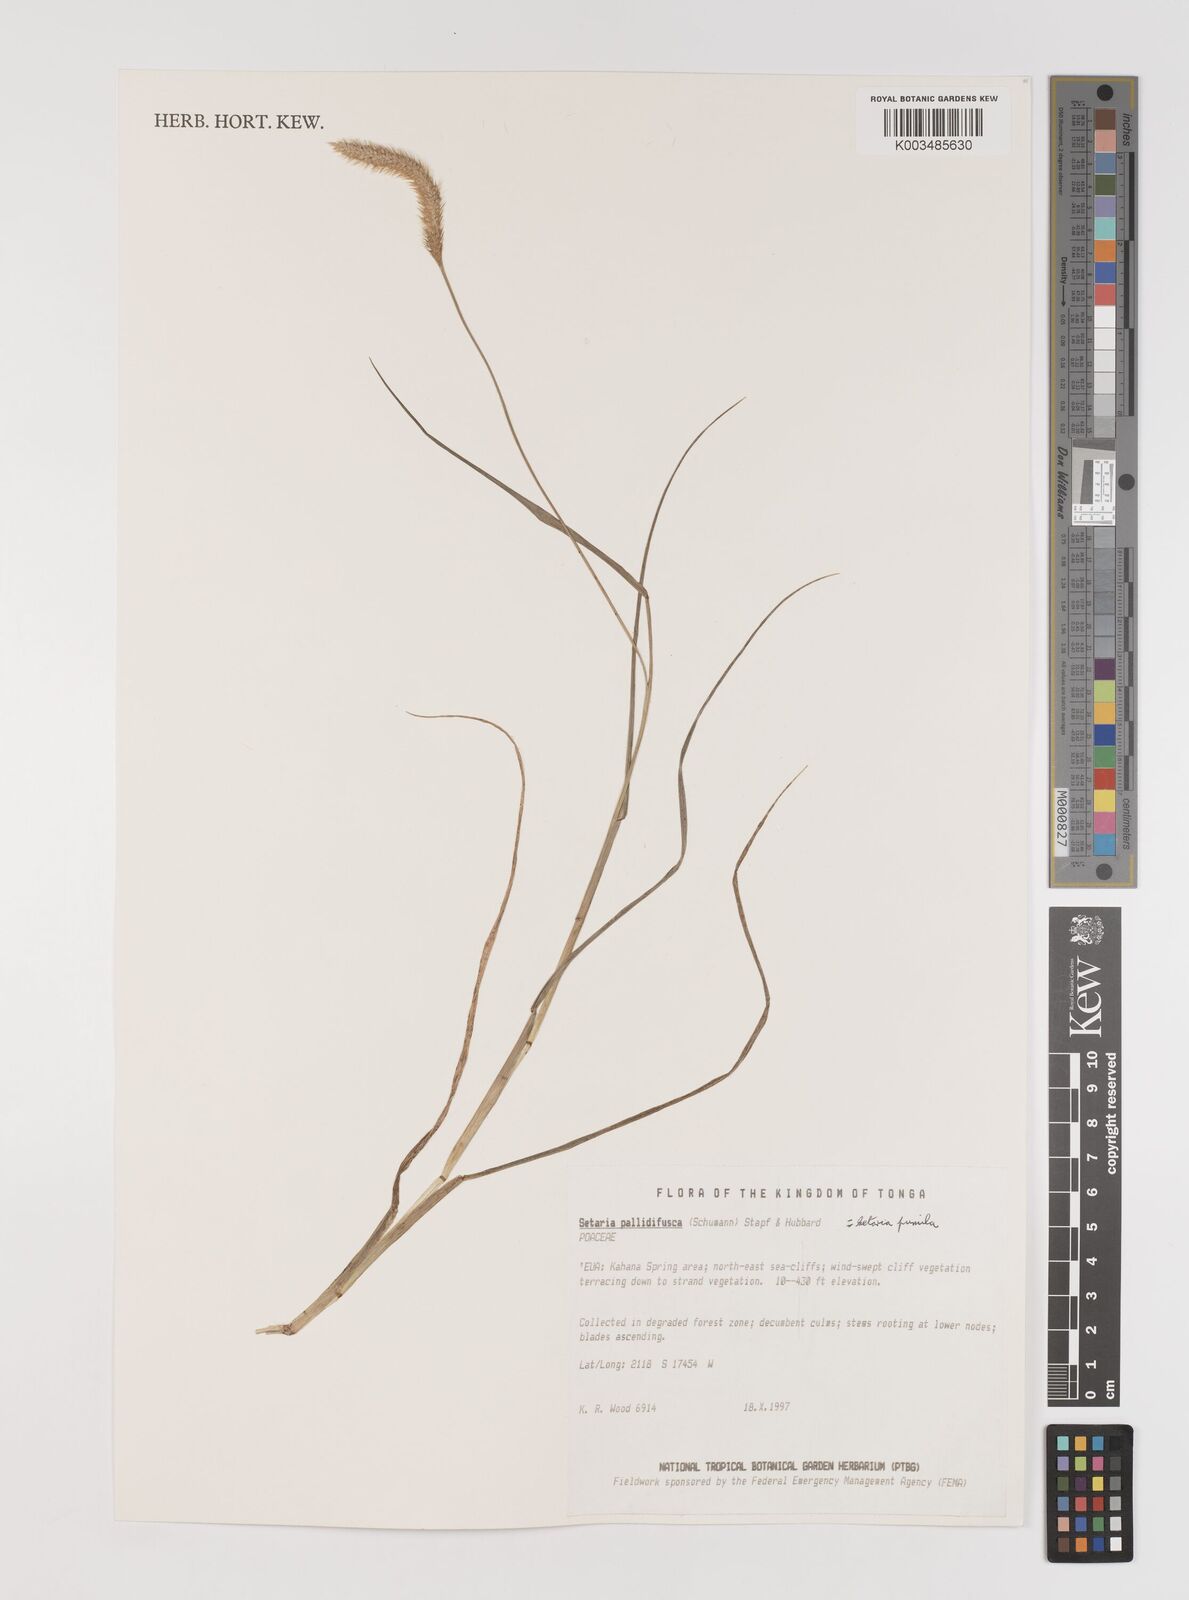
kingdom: Plantae
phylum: Tracheophyta
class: Liliopsida
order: Poales
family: Poaceae
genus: Setaria
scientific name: Setaria pumila
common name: Yellow bristle-grass
